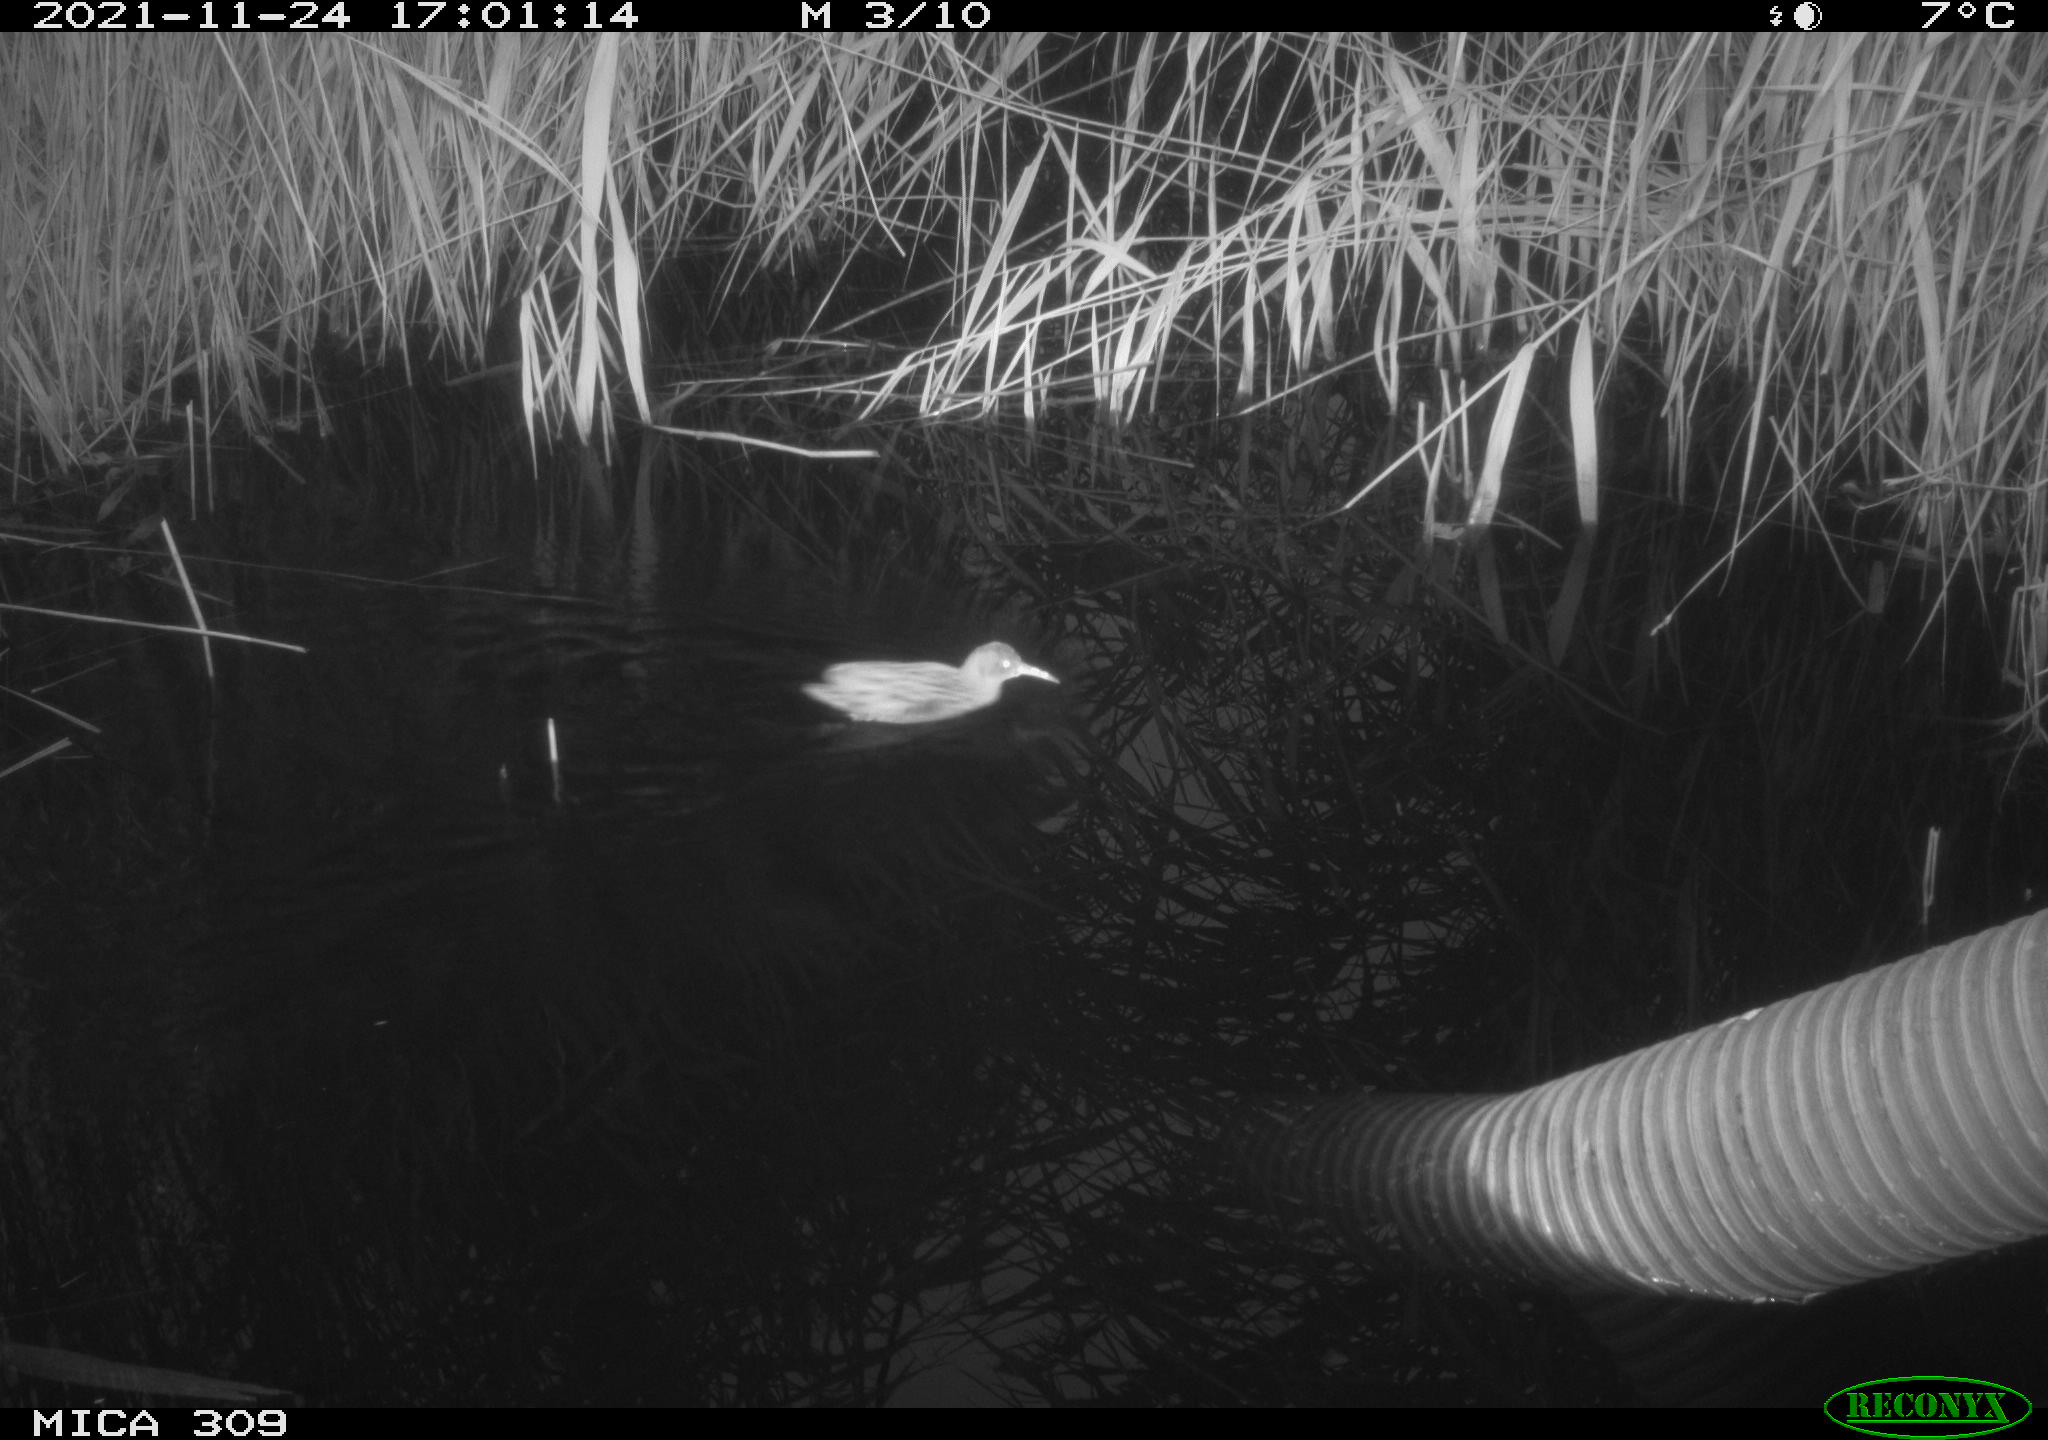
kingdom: Animalia
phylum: Chordata
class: Aves
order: Gruiformes
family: Rallidae
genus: Rallus
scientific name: Rallus aquaticus
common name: Water rail
